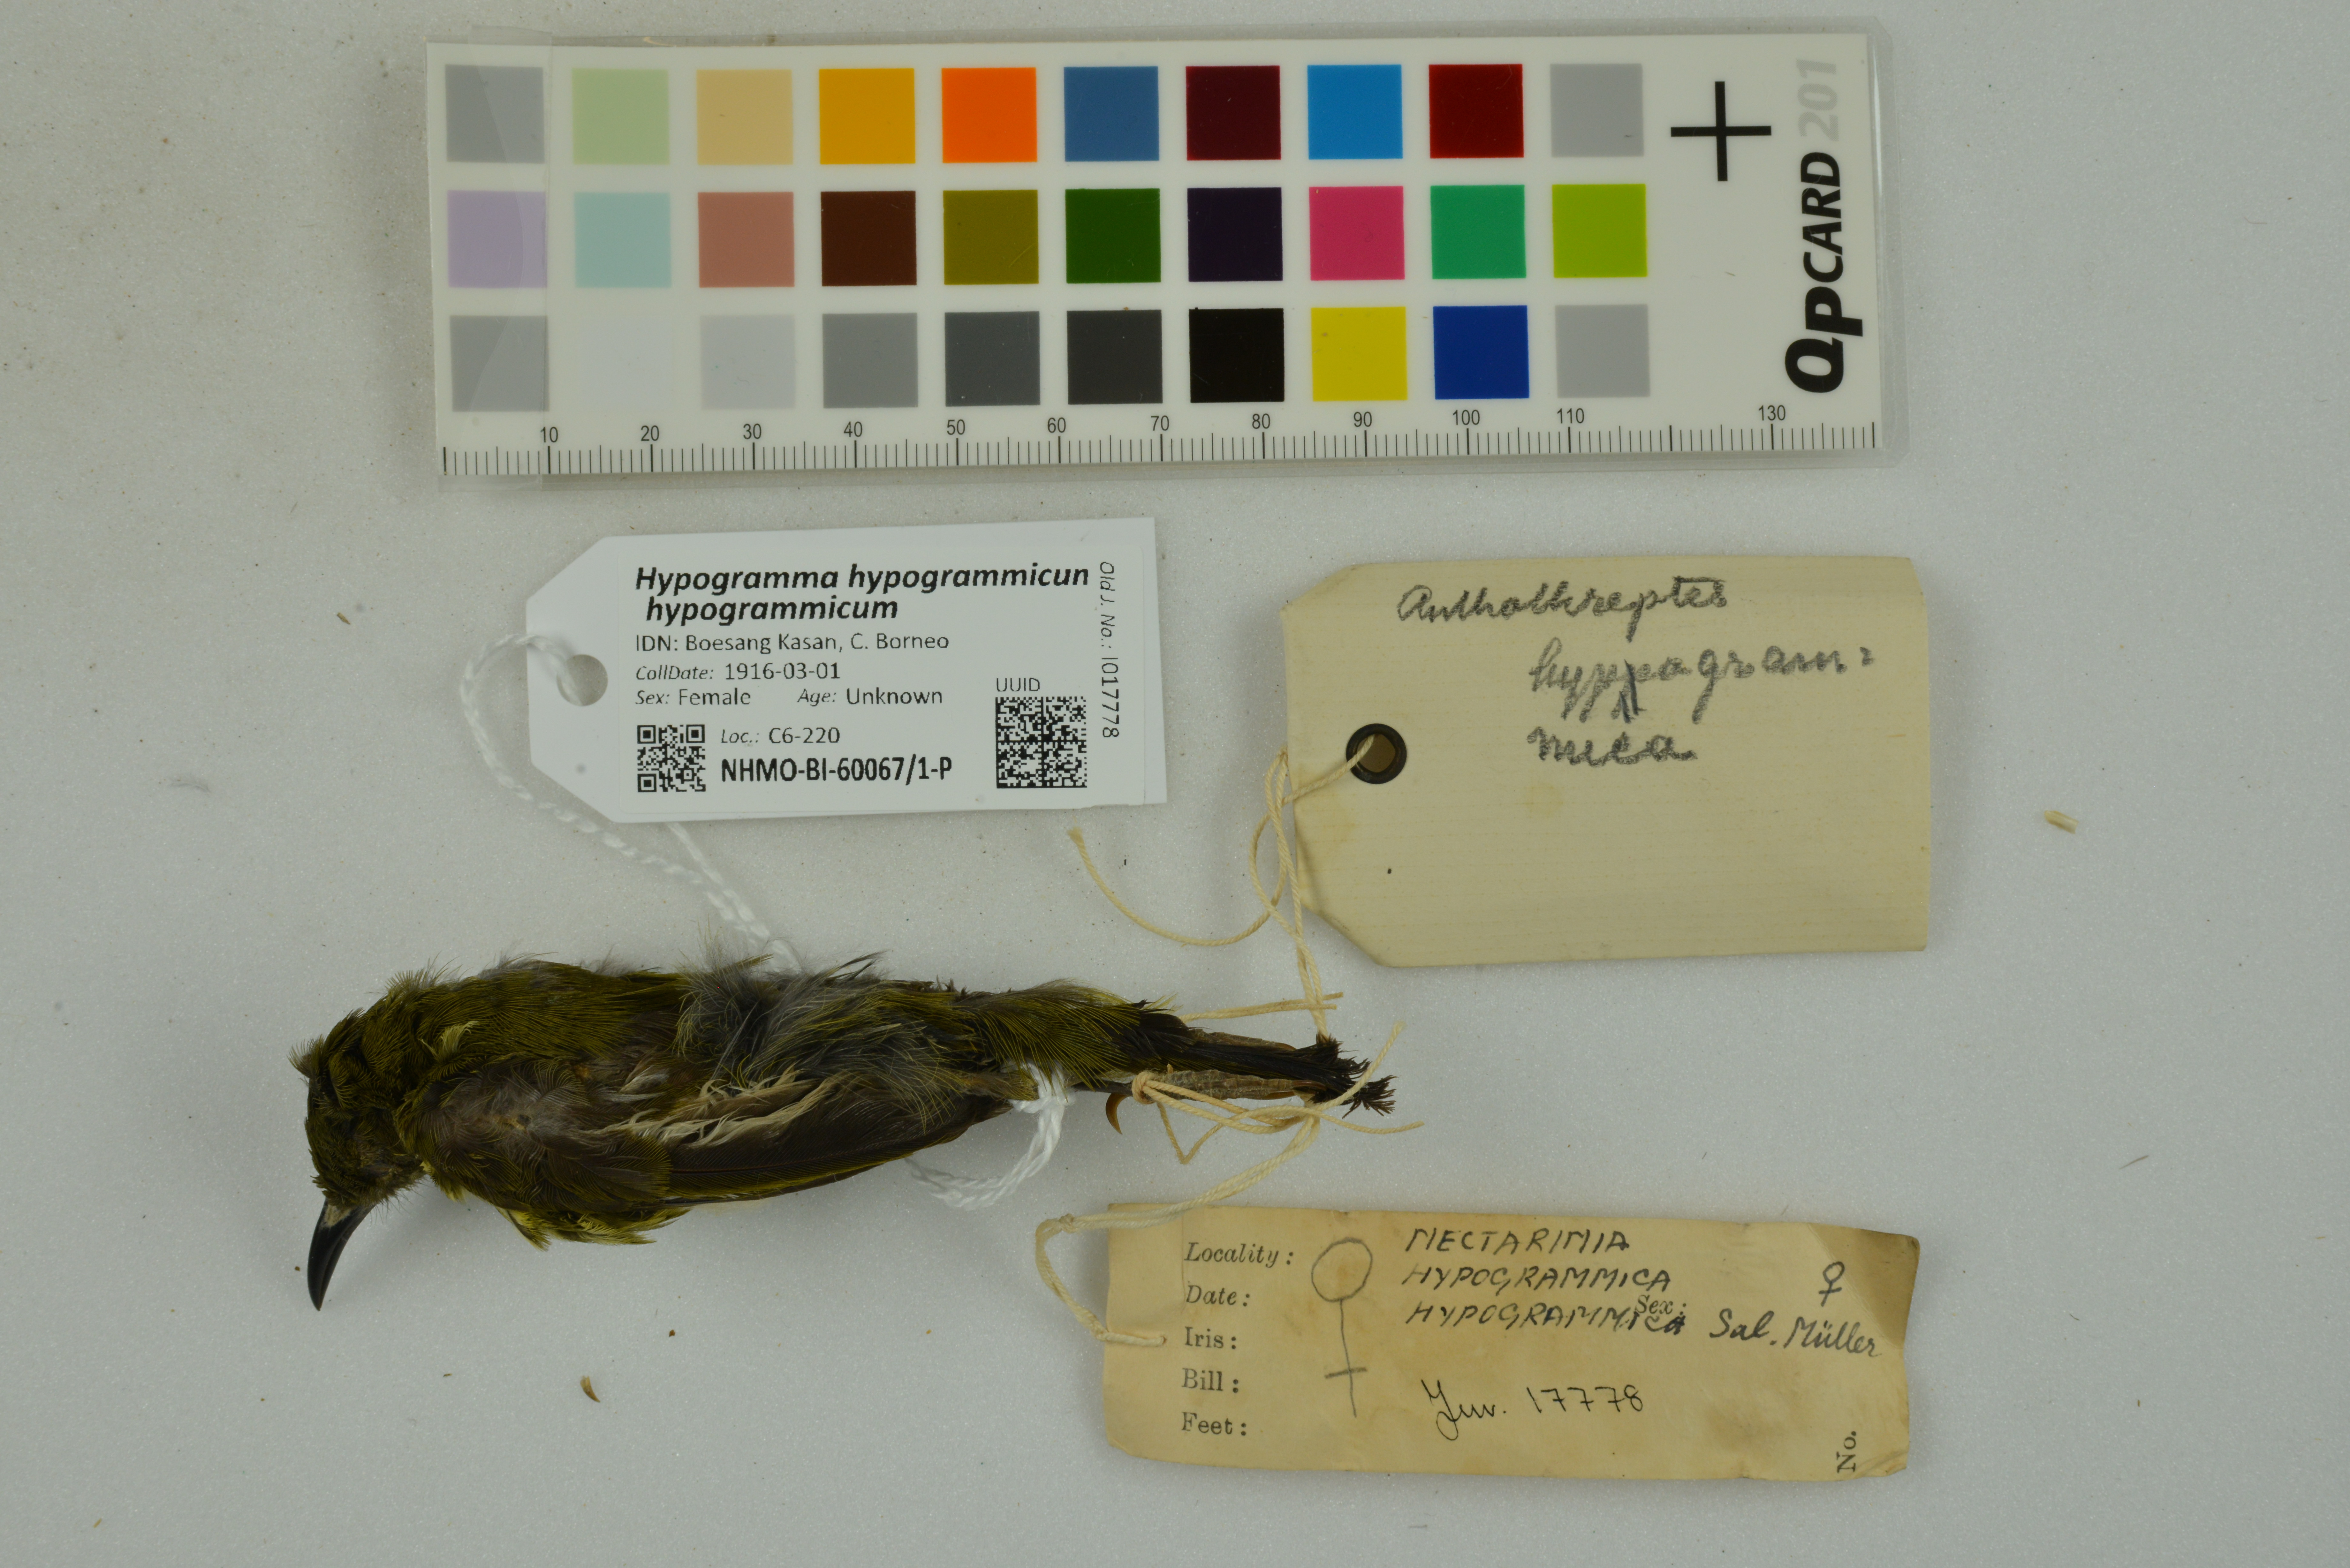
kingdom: Animalia
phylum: Chordata
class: Aves
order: Passeriformes
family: Nectariniidae
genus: Hypogramma
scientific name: Hypogramma hypogrammicum
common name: Purple-naped sunbird
